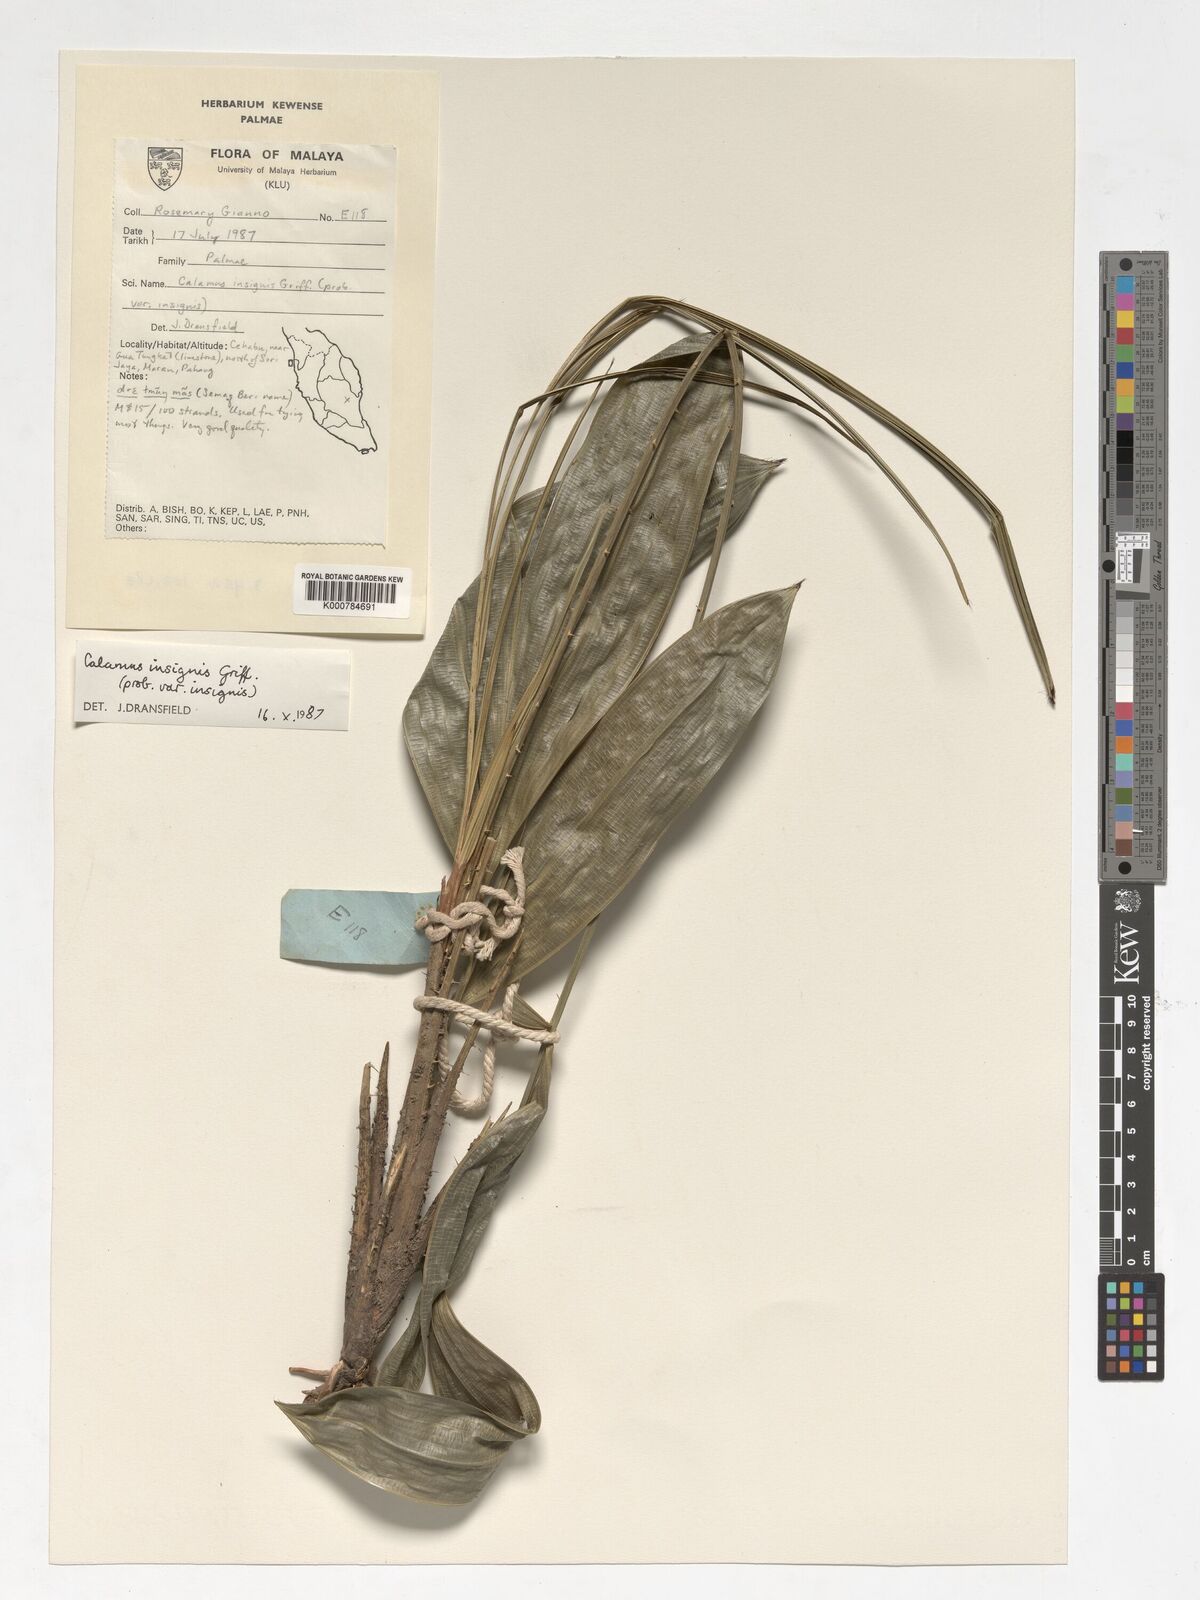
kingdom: Plantae
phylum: Tracheophyta
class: Liliopsida
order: Arecales
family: Arecaceae
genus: Calamus
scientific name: Calamus insignis
